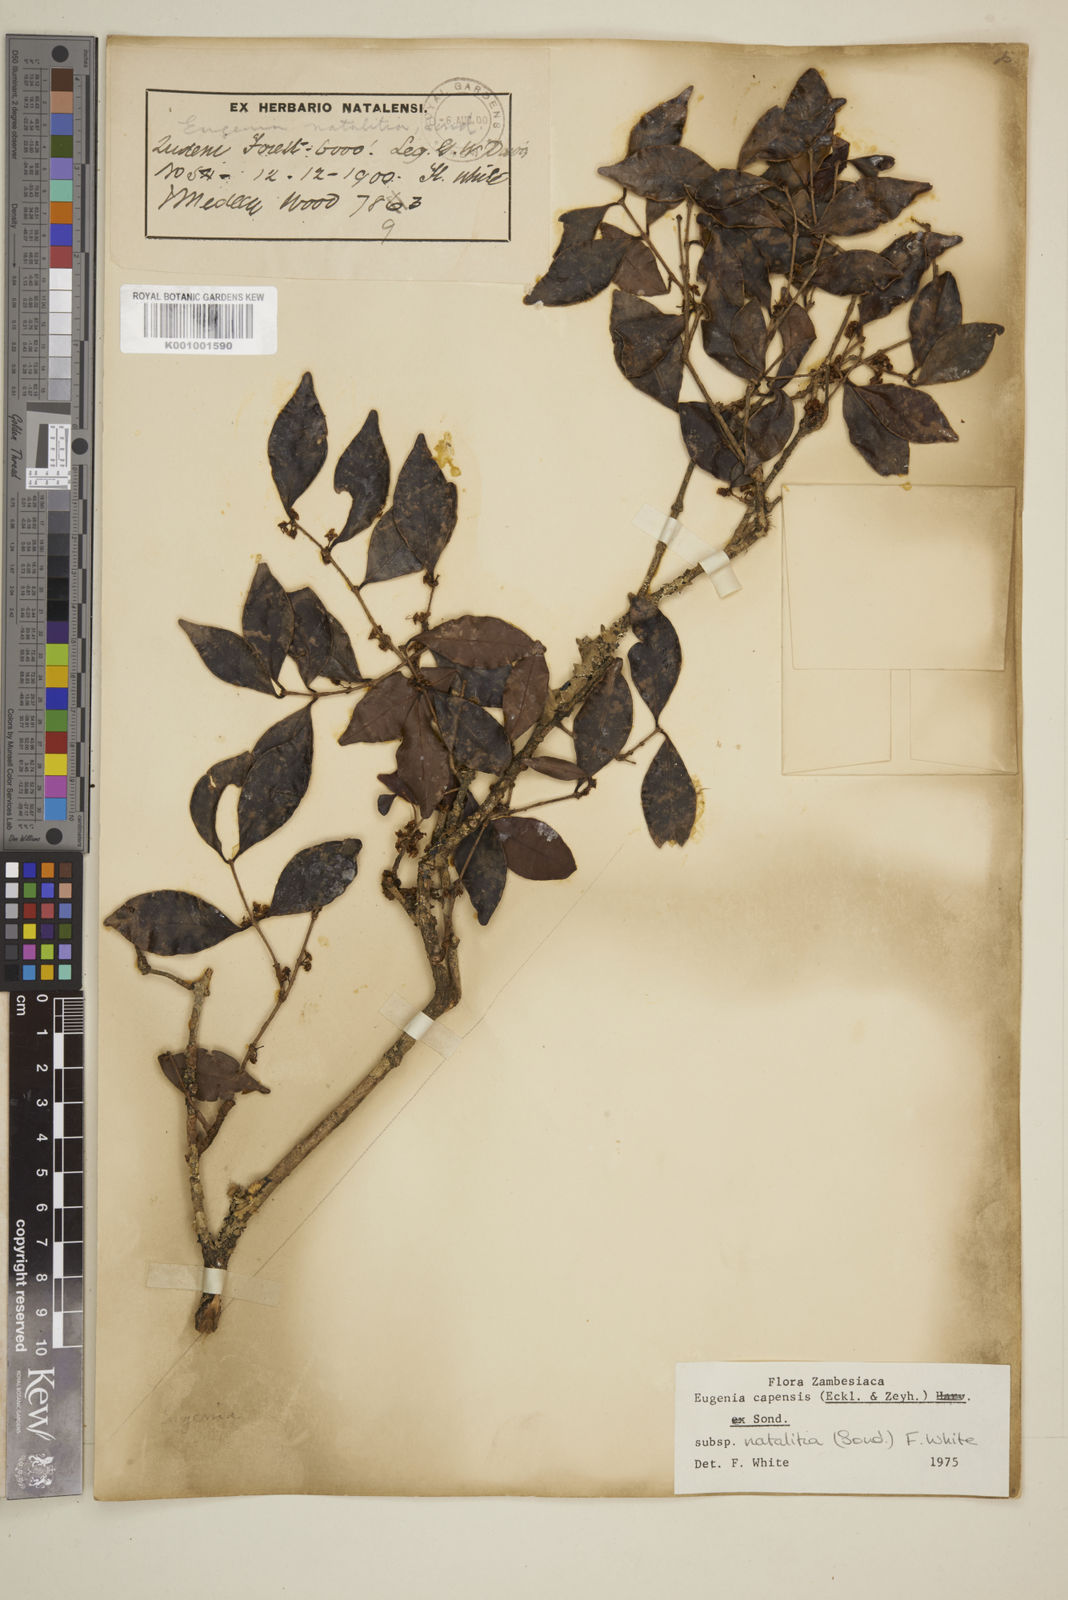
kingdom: Plantae
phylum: Tracheophyta
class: Magnoliopsida
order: Myrtales
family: Myrtaceae
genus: Eugenia
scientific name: Eugenia natalitia
